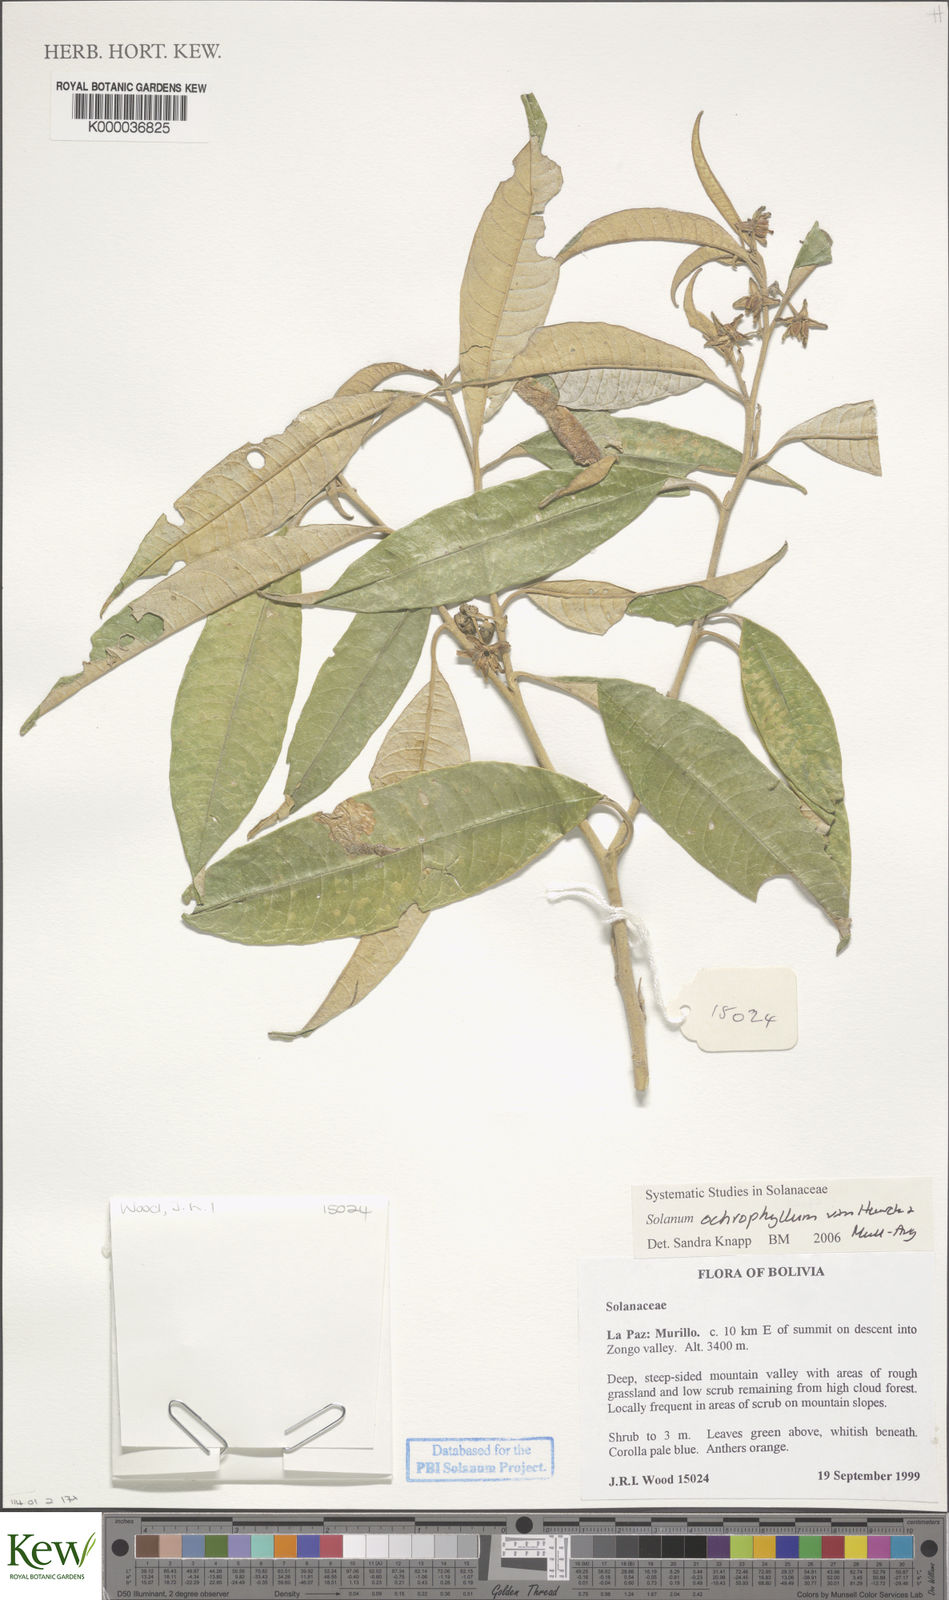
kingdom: Plantae
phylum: Tracheophyta
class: Magnoliopsida
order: Solanales
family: Solanaceae
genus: Solanum
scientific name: Solanum ochrophyllum
